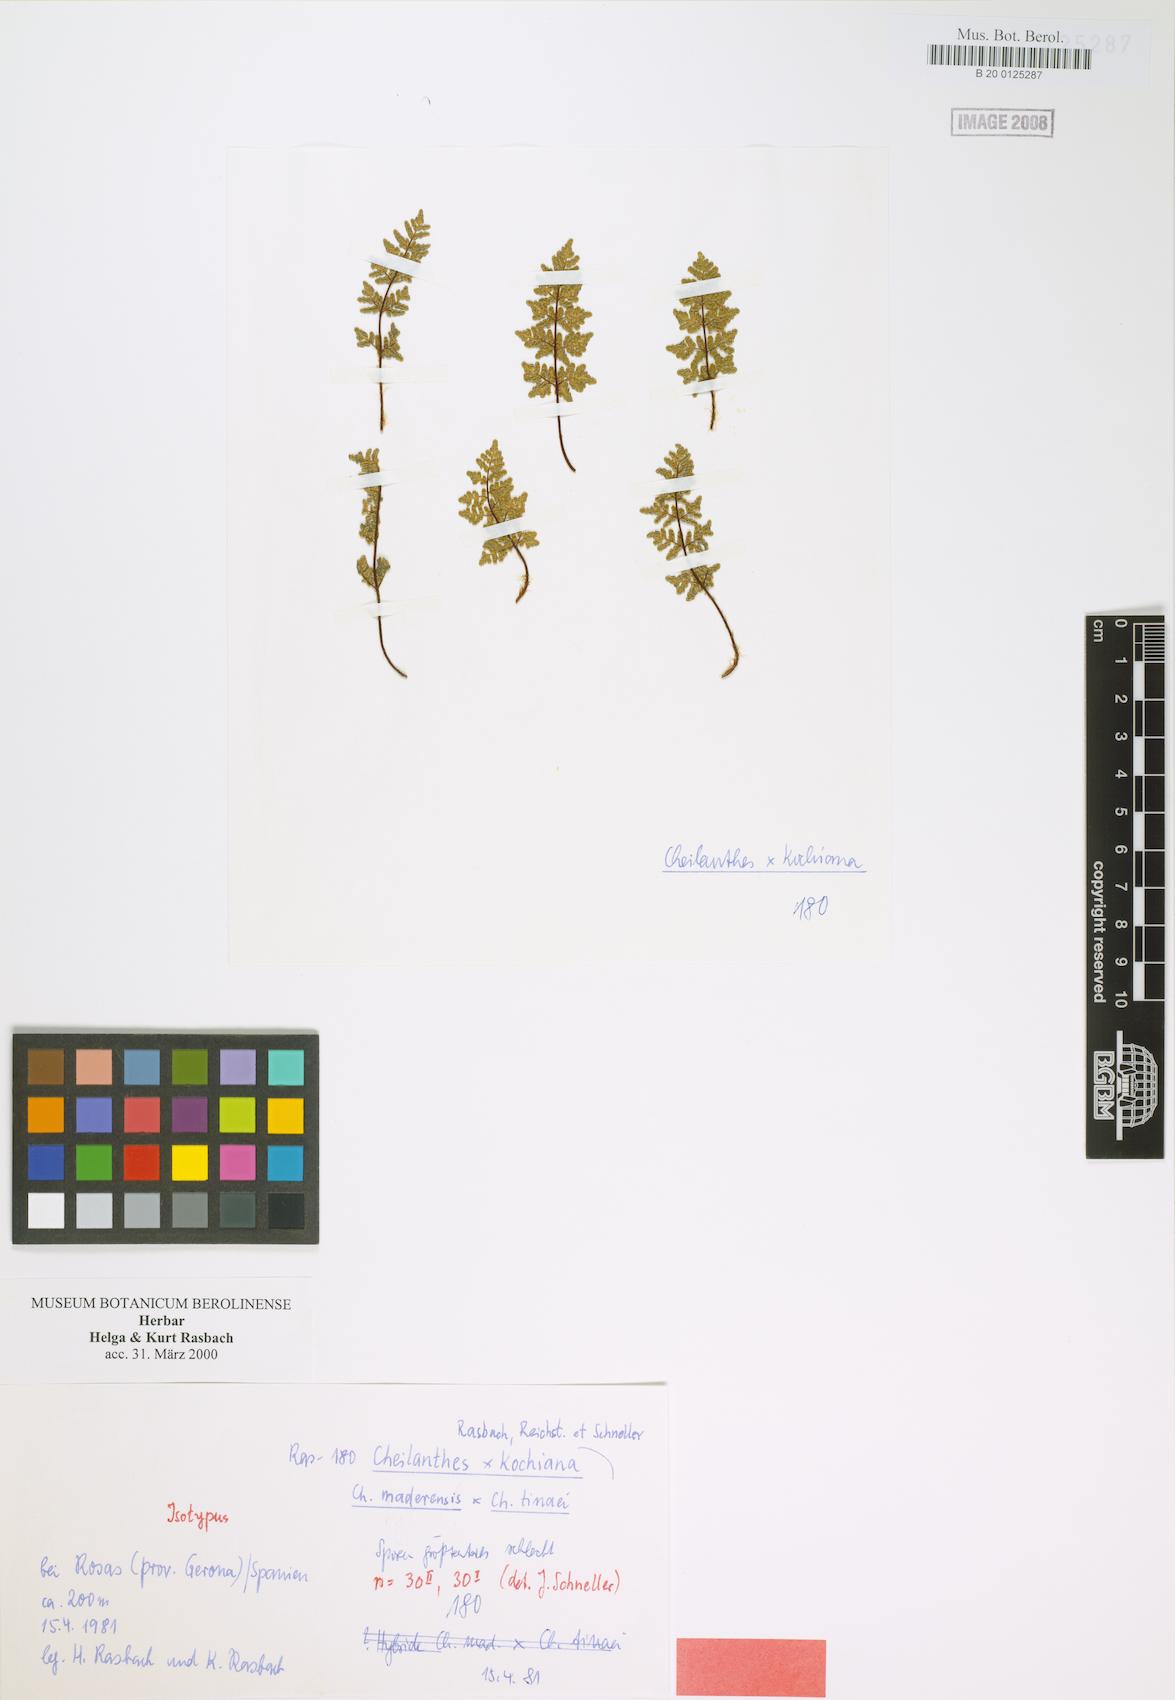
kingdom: Plantae
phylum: Tracheophyta
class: Polypodiopsida
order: Polypodiales
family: Pteridaceae
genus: Oeosporangium
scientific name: Oeosporangium kochianum
